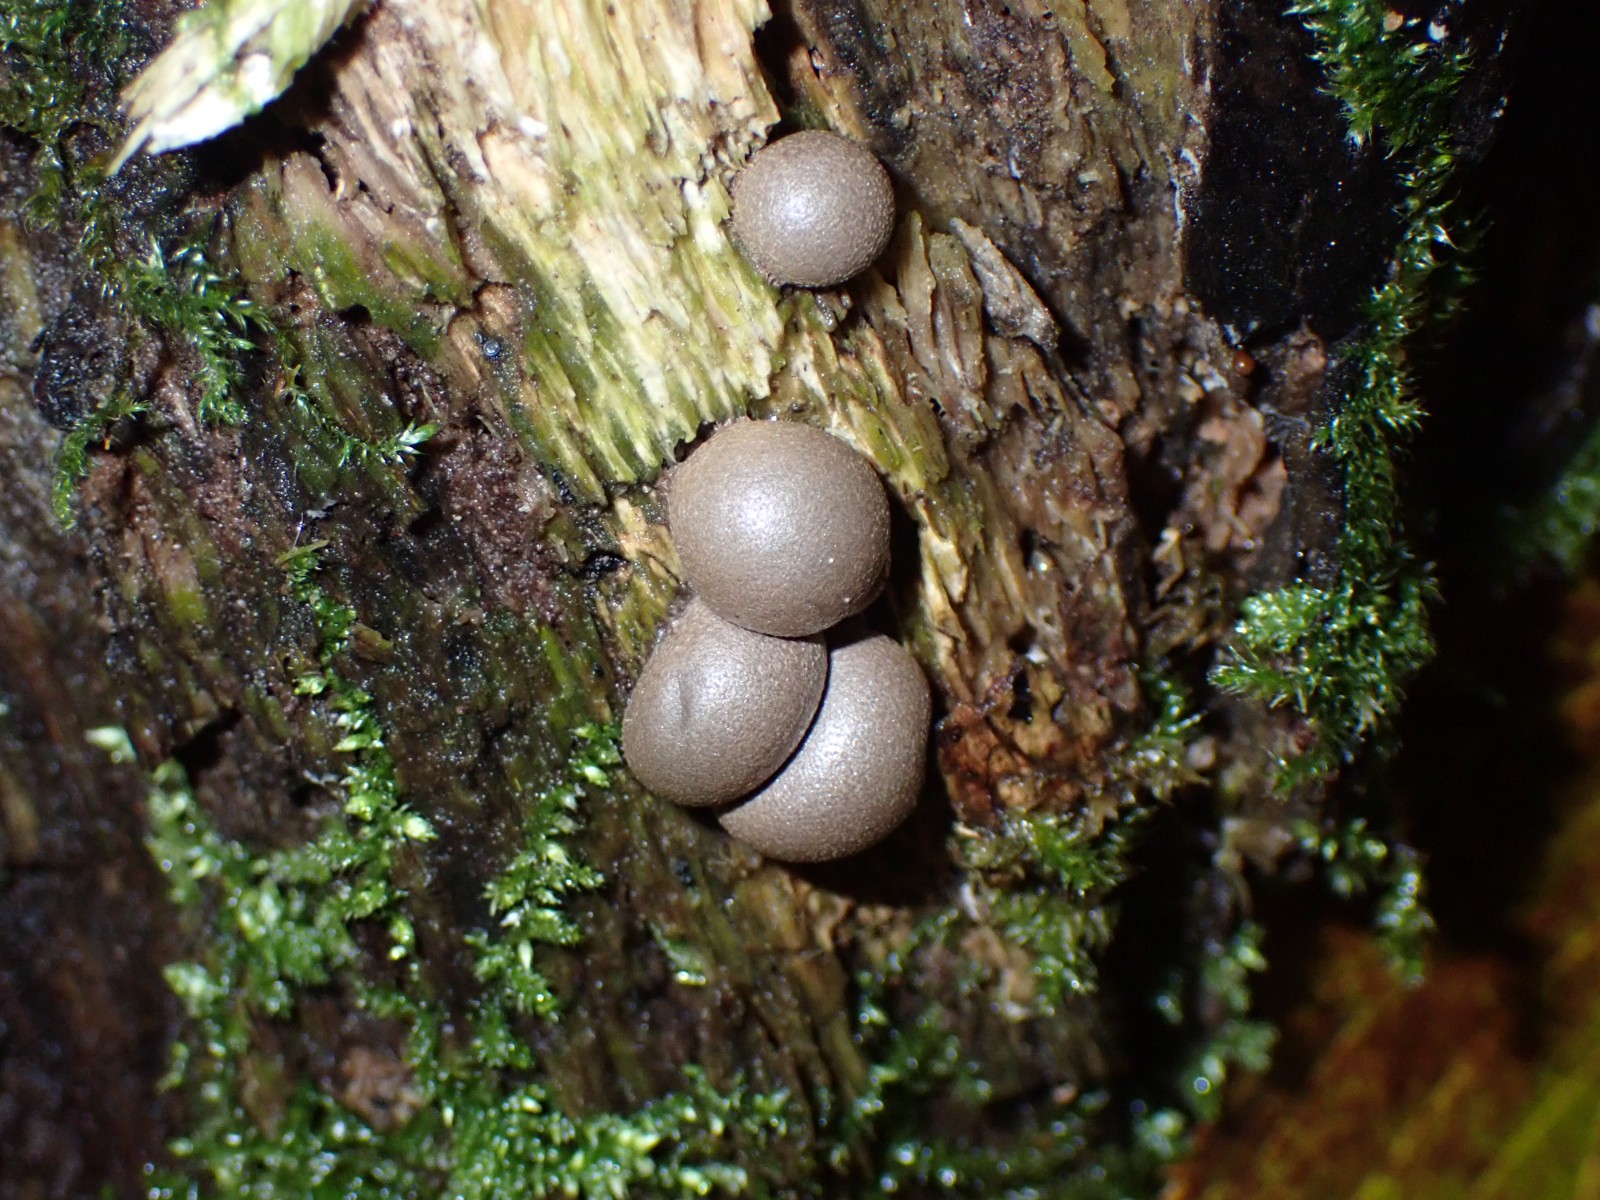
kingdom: Protozoa
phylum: Mycetozoa
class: Myxomycetes
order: Cribrariales
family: Tubiferaceae
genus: Lycogala
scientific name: Lycogala epidendrum
